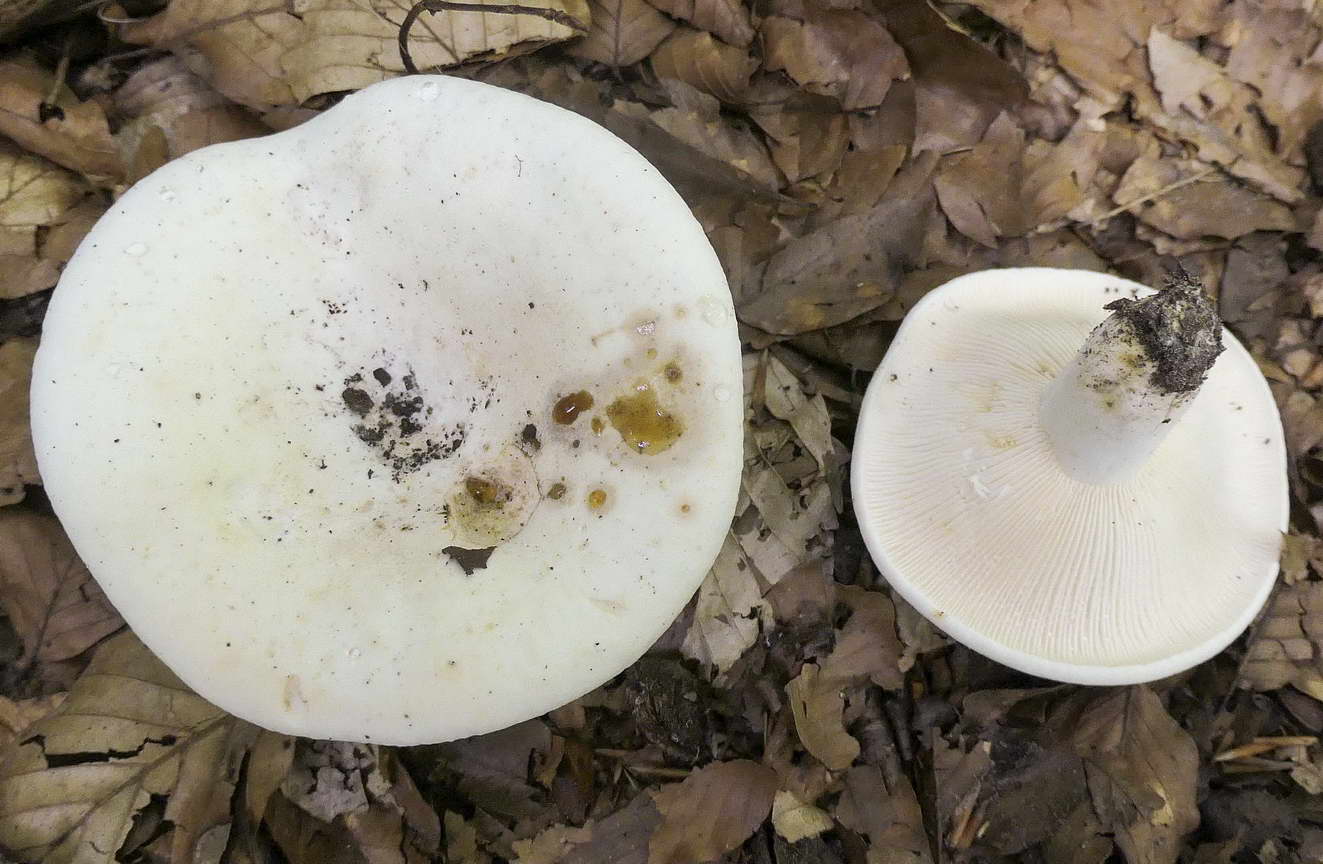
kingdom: Fungi
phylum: Basidiomycota
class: Agaricomycetes
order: Russulales
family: Russulaceae
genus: Lactifluus
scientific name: Lactifluus bertillonii
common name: blødfiltet mælkehat
